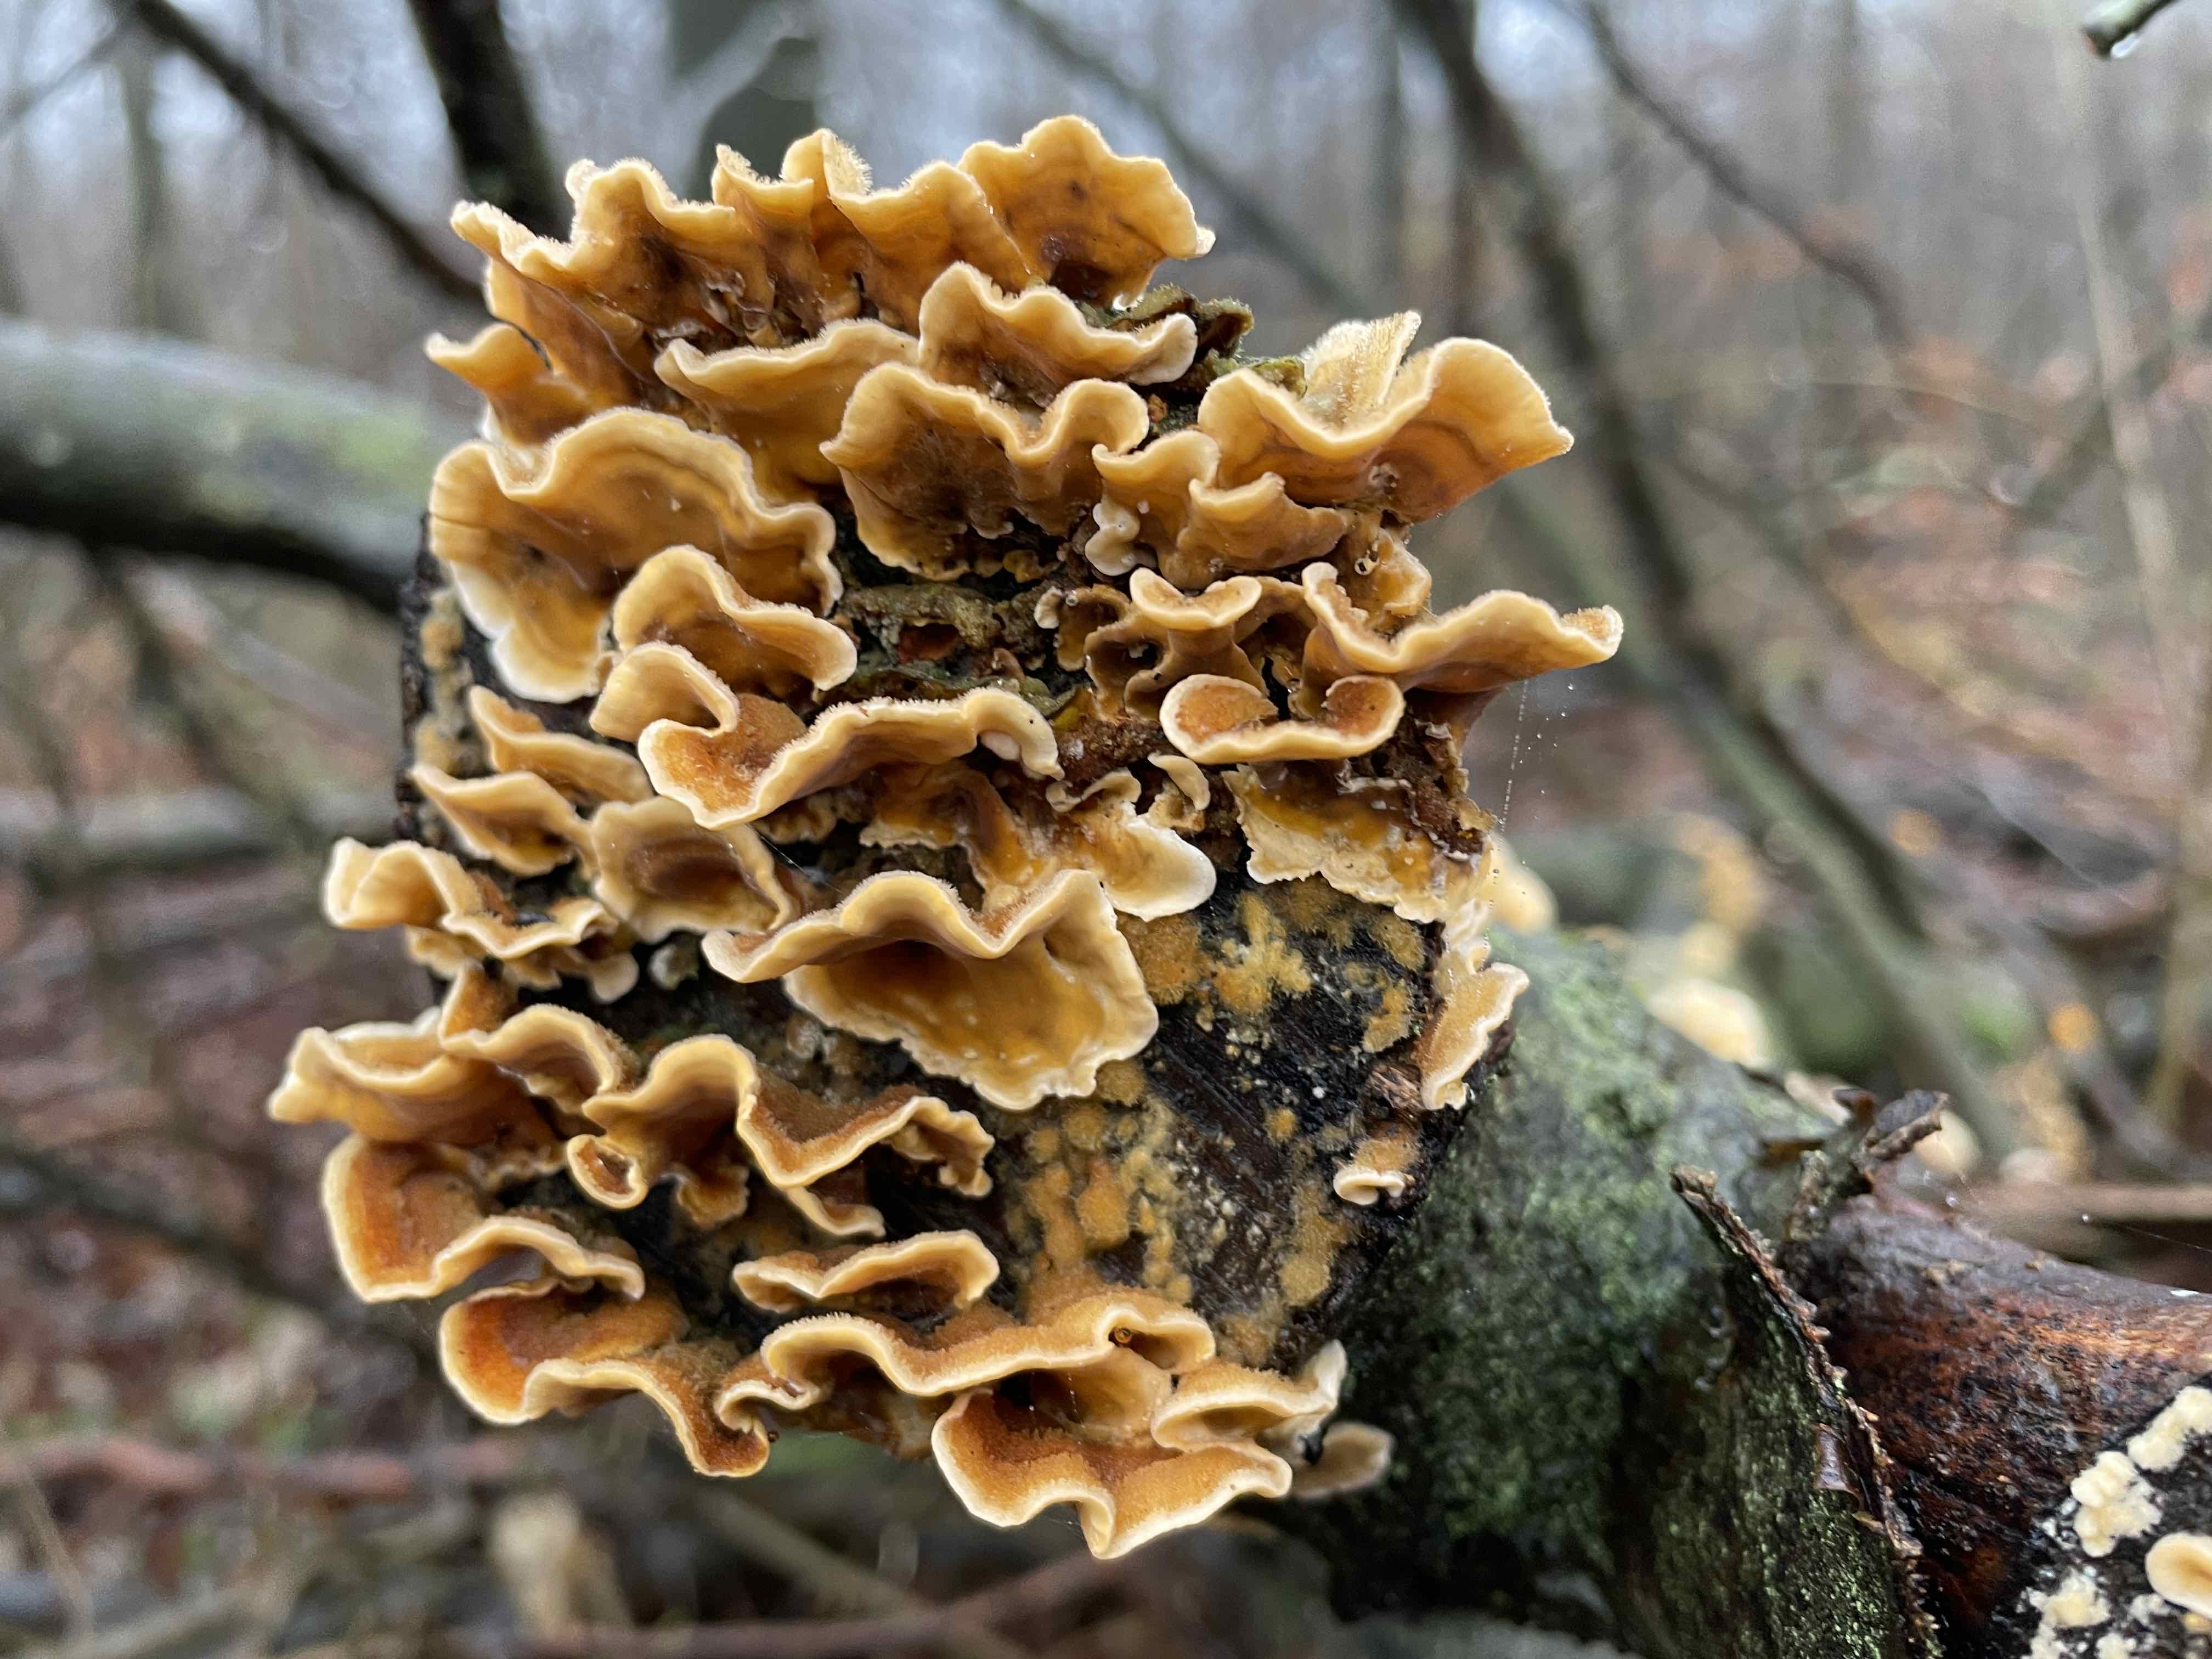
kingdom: Fungi
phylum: Basidiomycota
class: Agaricomycetes
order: Russulales
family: Stereaceae
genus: Stereum
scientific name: Stereum hirsutum
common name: håret lædersvamp
